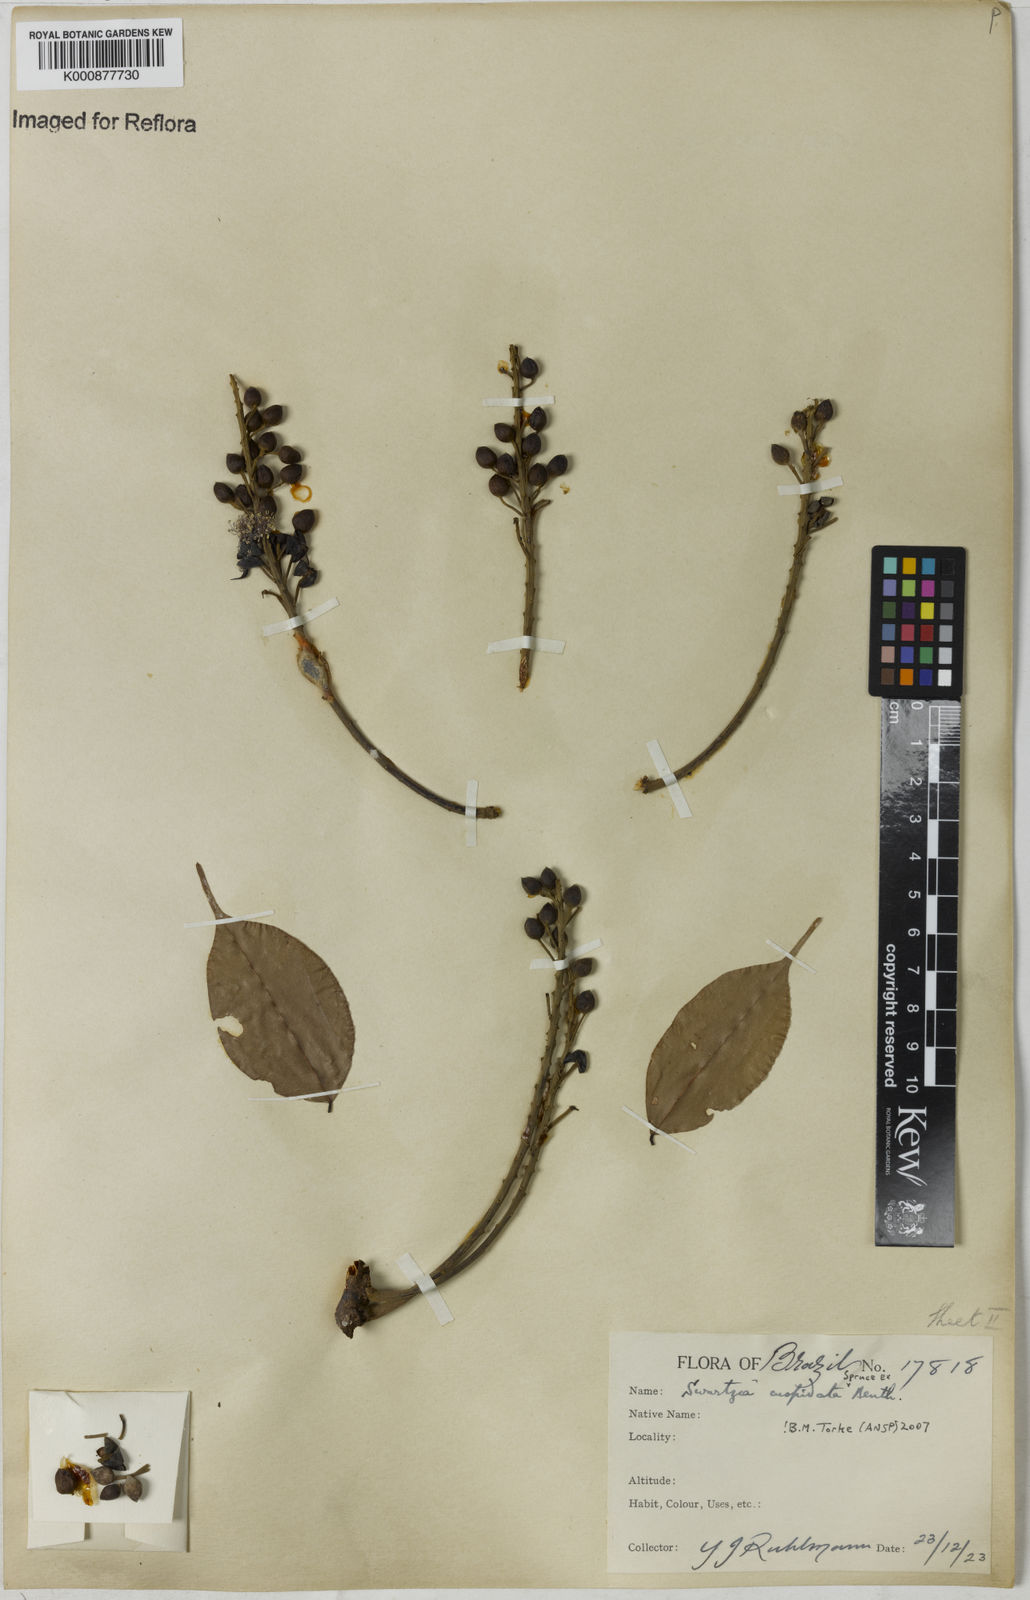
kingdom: Plantae
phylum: Tracheophyta
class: Magnoliopsida
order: Fabales
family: Fabaceae
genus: Swartzia
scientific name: Swartzia cuspidata
